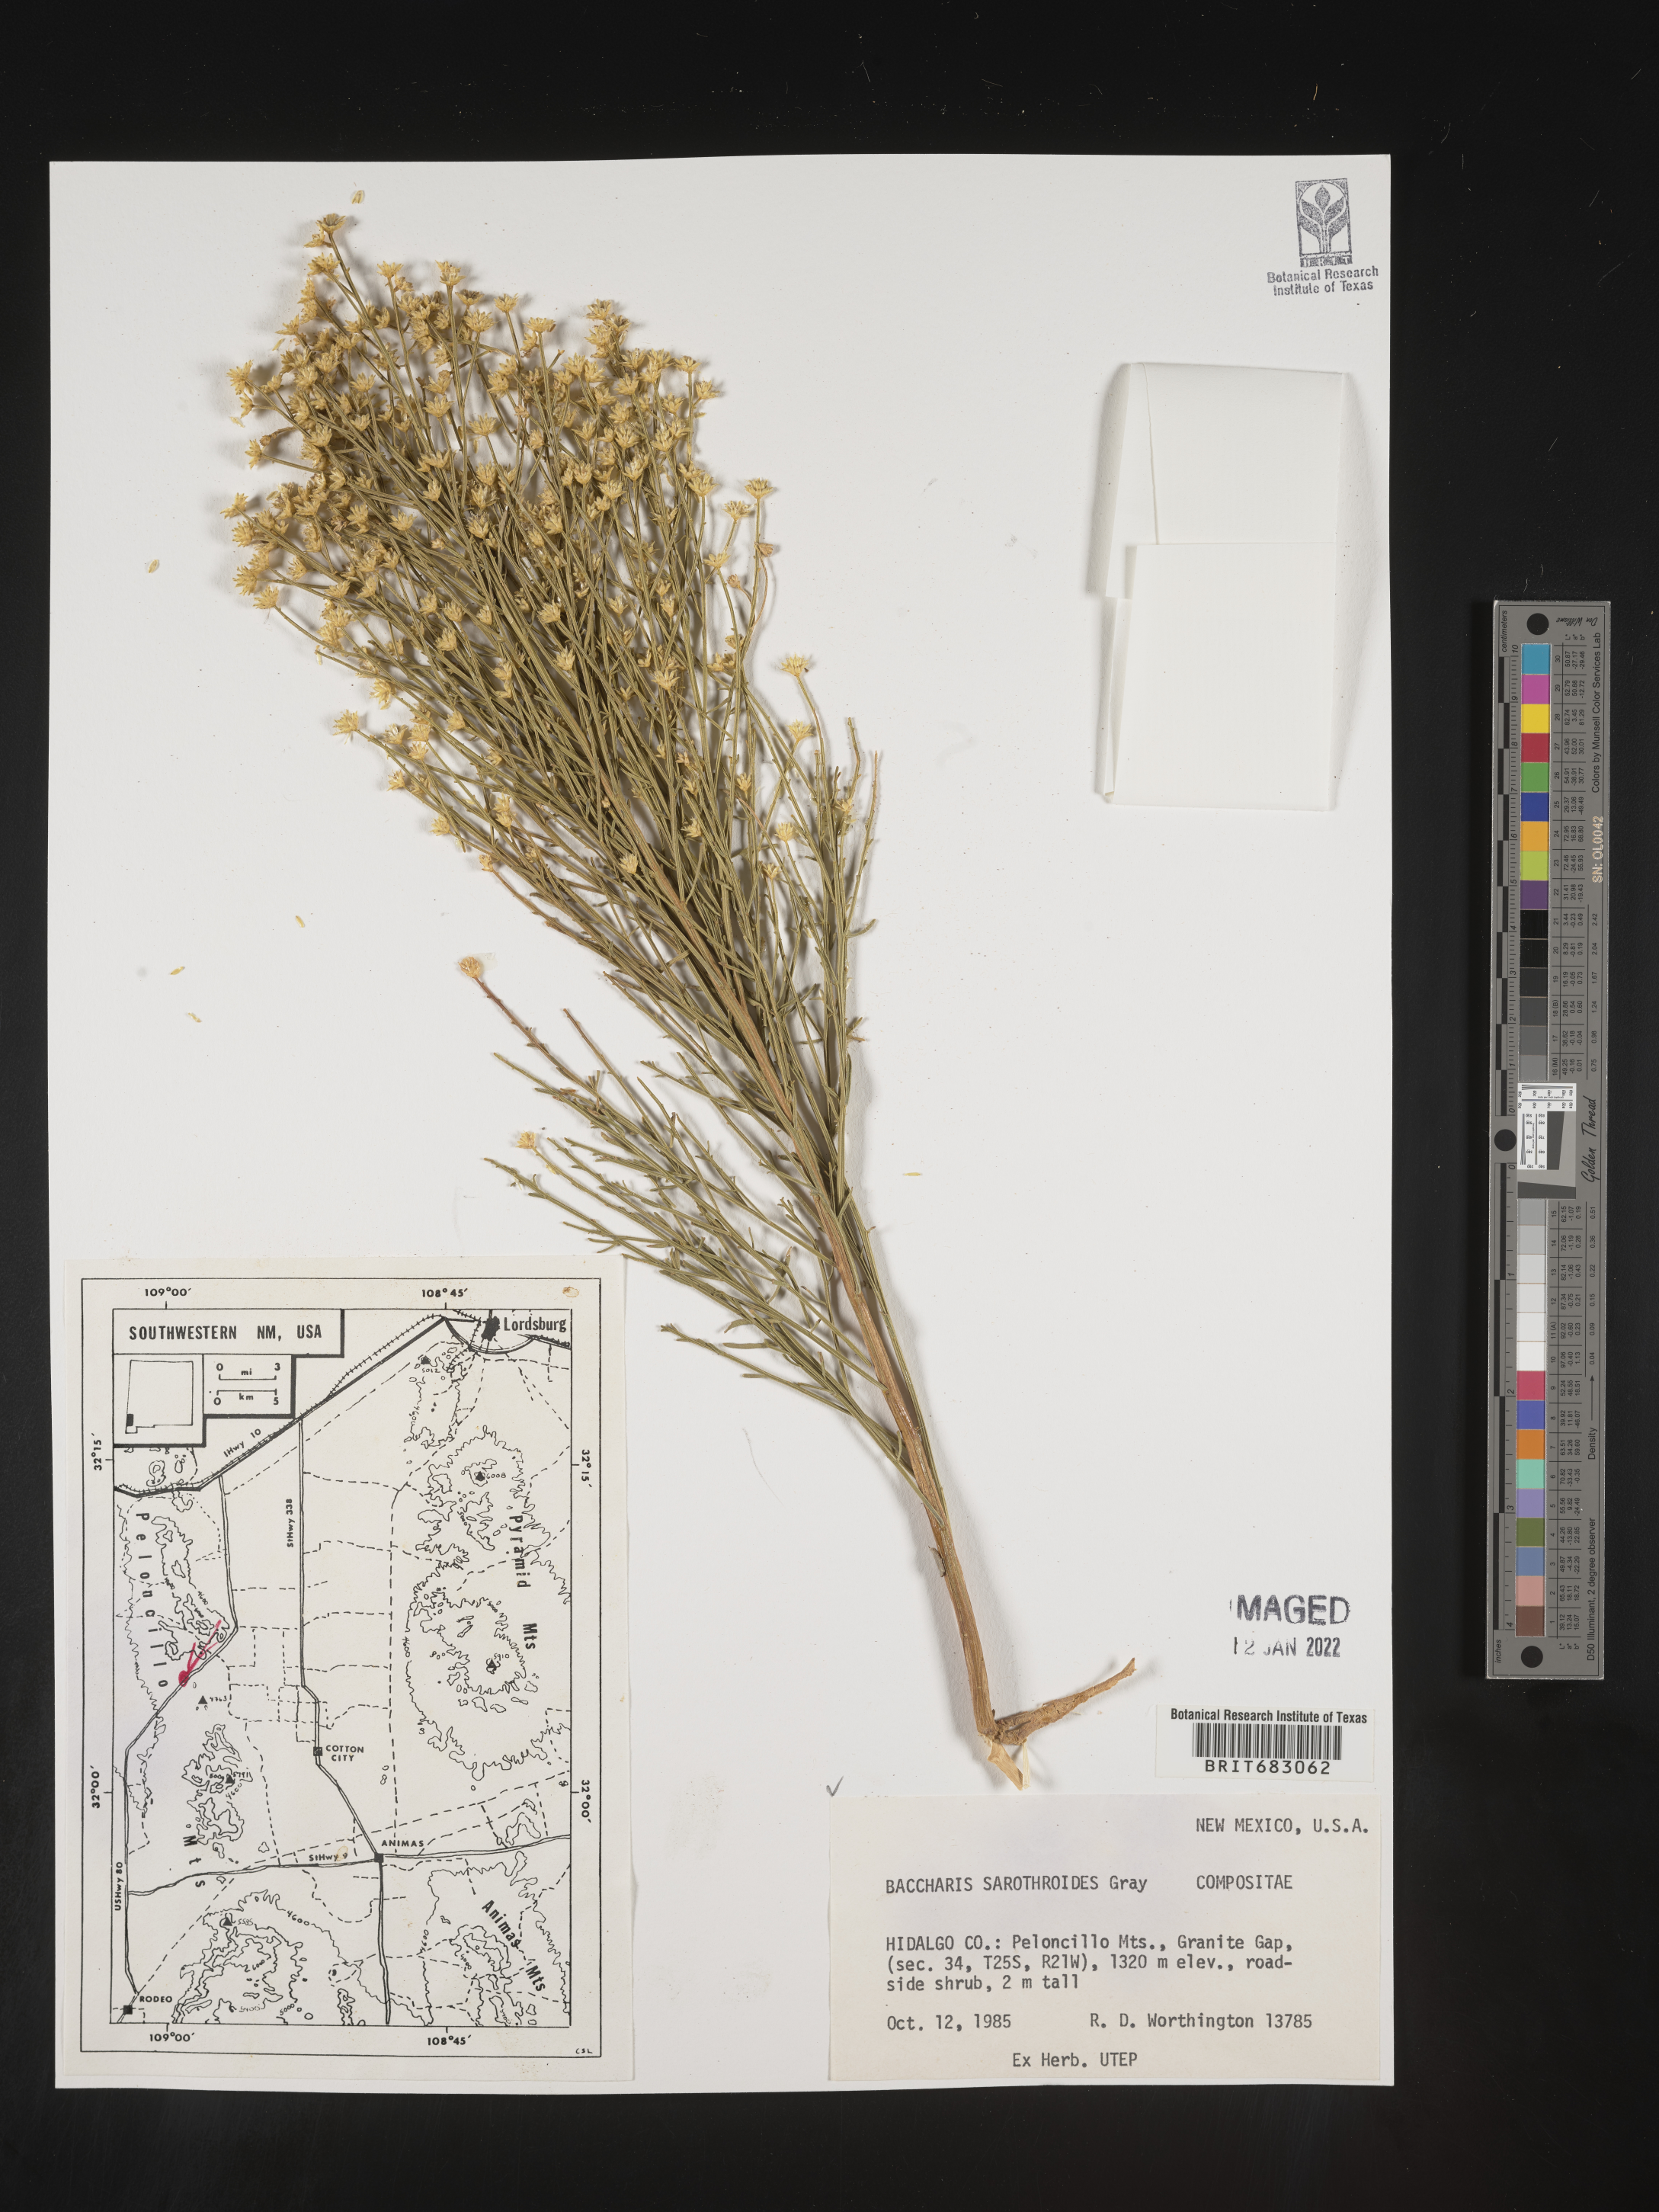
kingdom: Plantae
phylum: Tracheophyta
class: Magnoliopsida
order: Asterales
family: Asteraceae
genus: Baccharis
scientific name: Baccharis sarothroides
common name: Desert-broom
